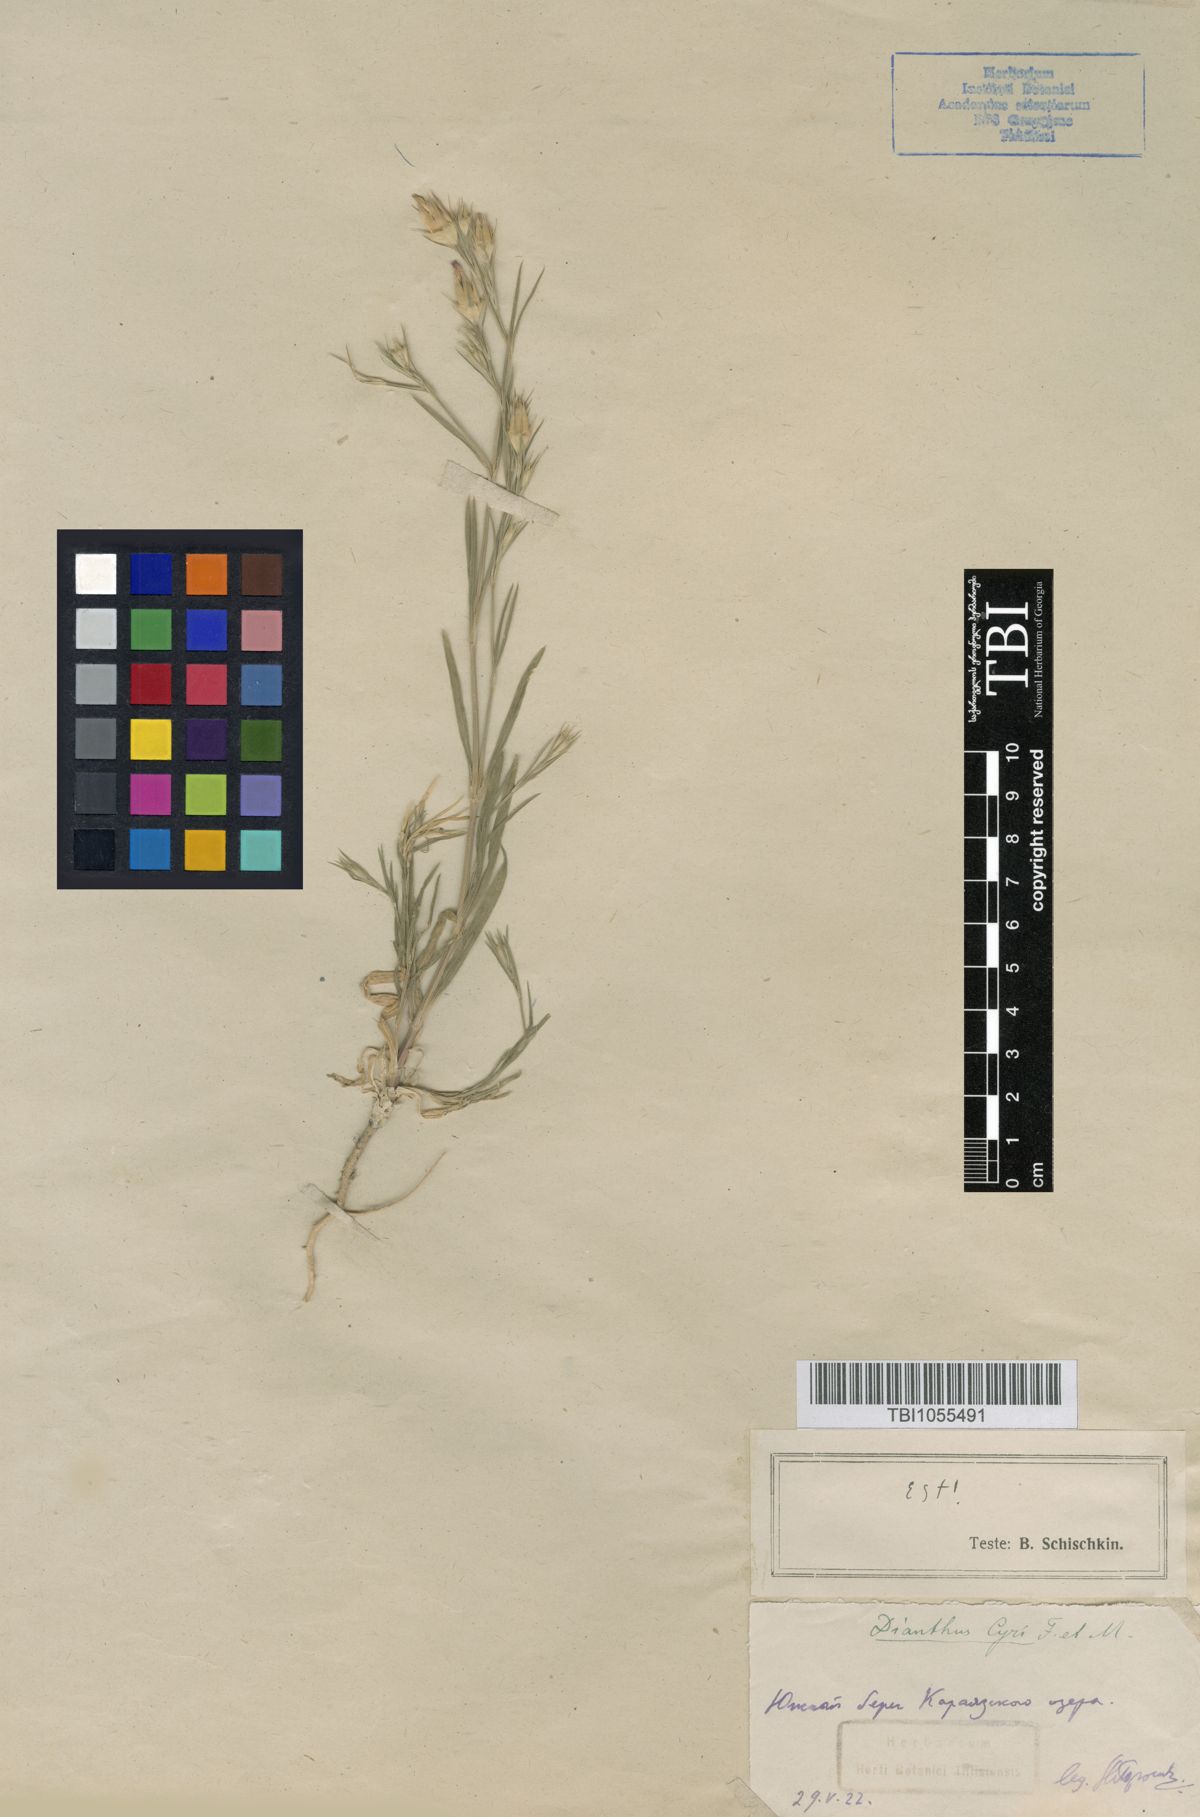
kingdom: Plantae
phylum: Tracheophyta
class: Magnoliopsida
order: Caryophyllales
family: Caryophyllaceae
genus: Dianthus
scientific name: Dianthus cyri
